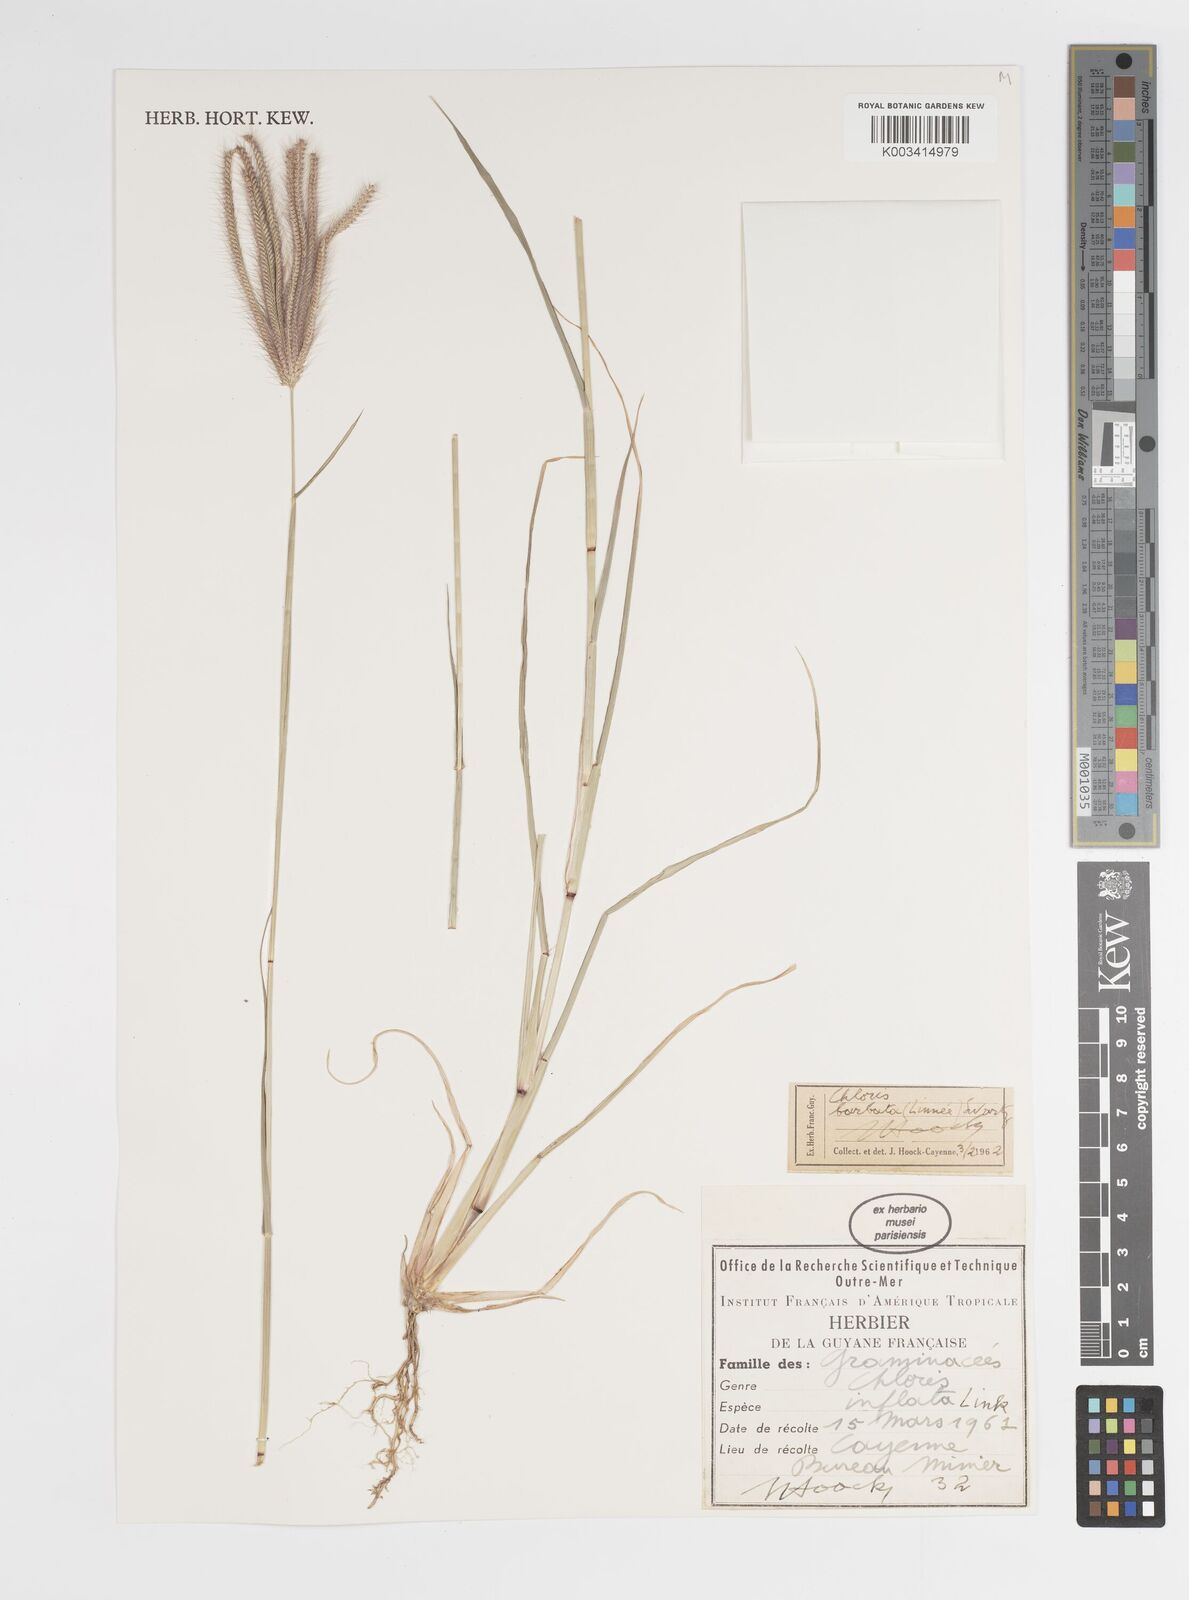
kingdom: Plantae
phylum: Tracheophyta
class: Liliopsida
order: Poales
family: Poaceae
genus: Chloris
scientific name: Chloris barbata
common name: Swollen fingergrass
